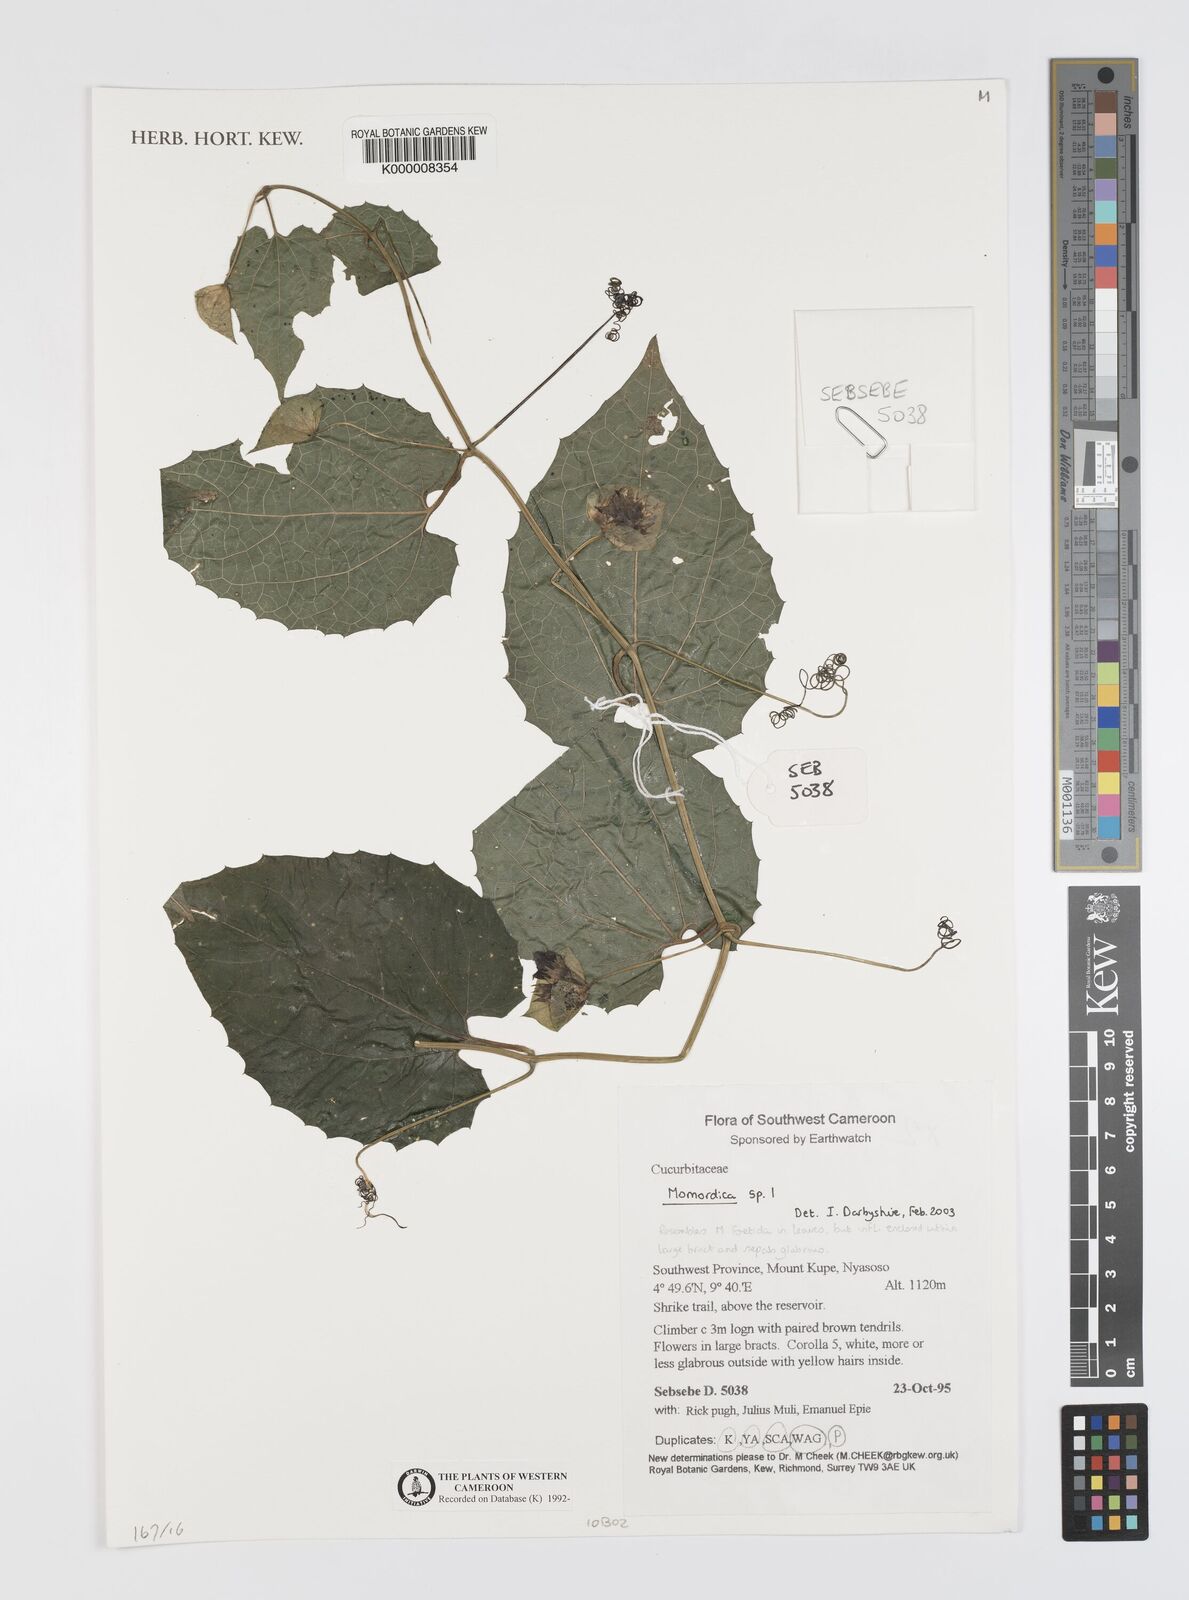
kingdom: Plantae
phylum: Tracheophyta
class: Magnoliopsida
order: Cucurbitales
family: Cucurbitaceae
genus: Momordica
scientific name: Momordica
